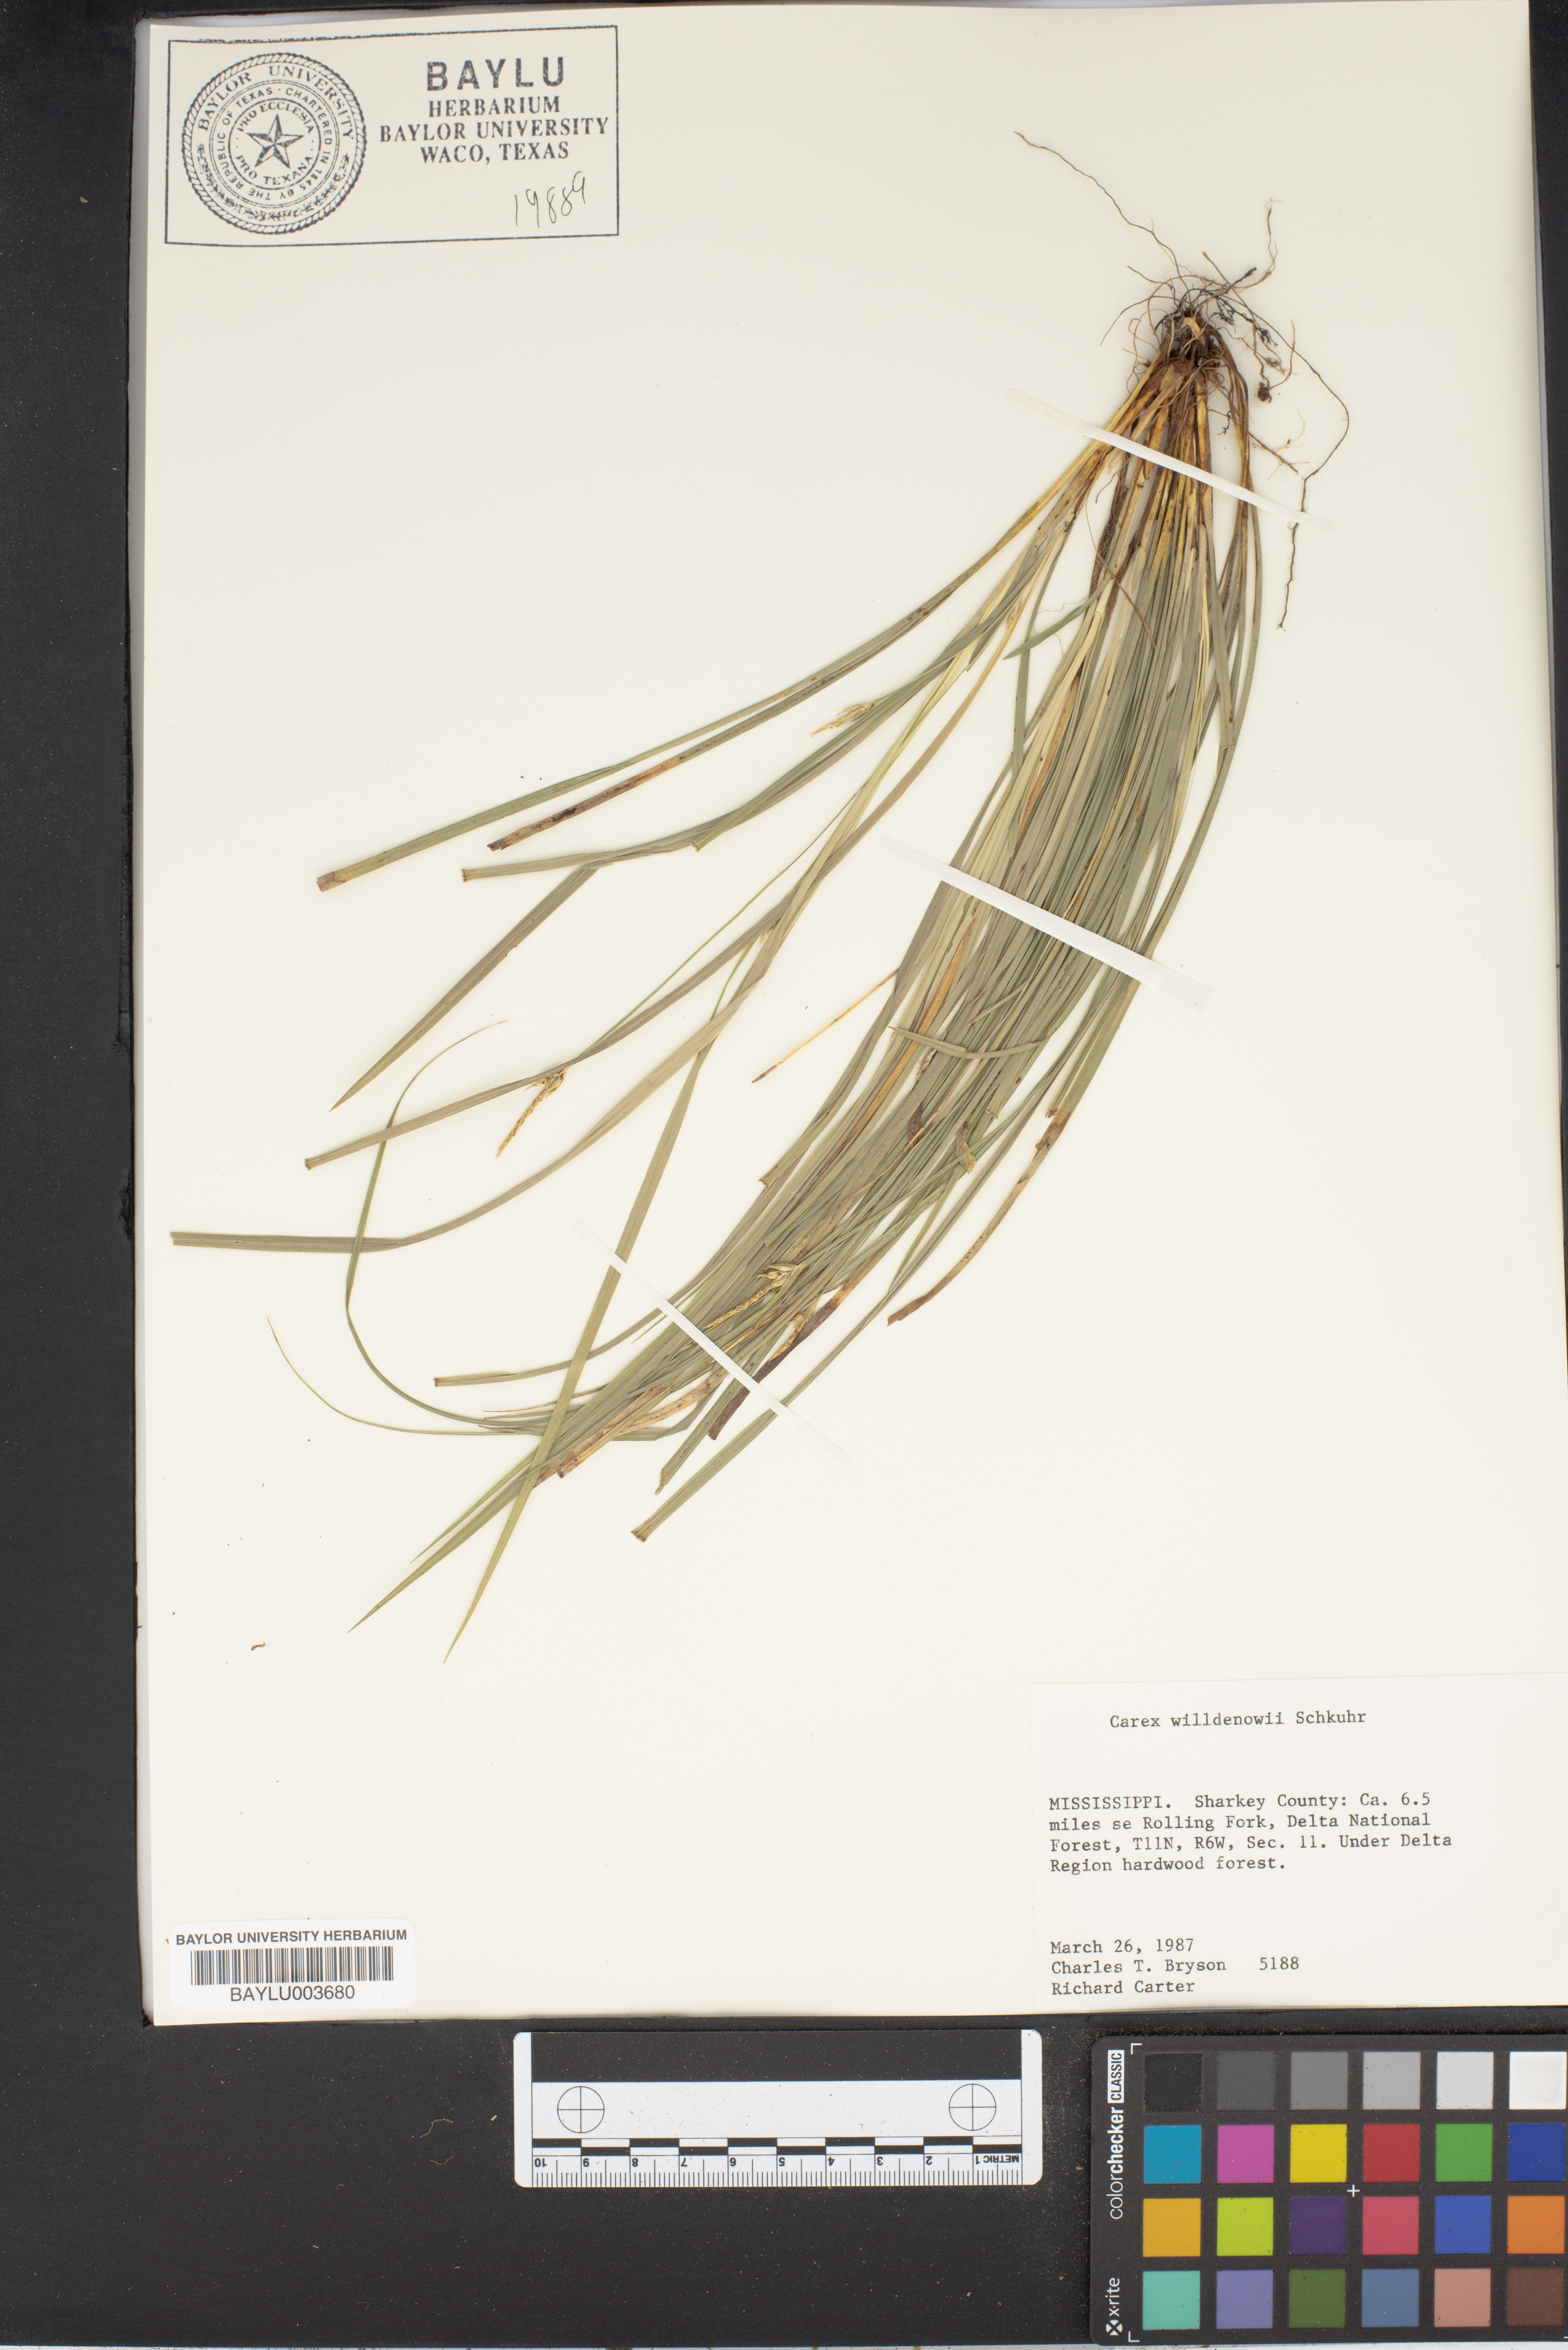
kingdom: Plantae
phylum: Tracheophyta
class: Liliopsida
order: Poales
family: Cyperaceae
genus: Carex
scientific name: Carex willdenowii
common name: Willdenow's sedge
